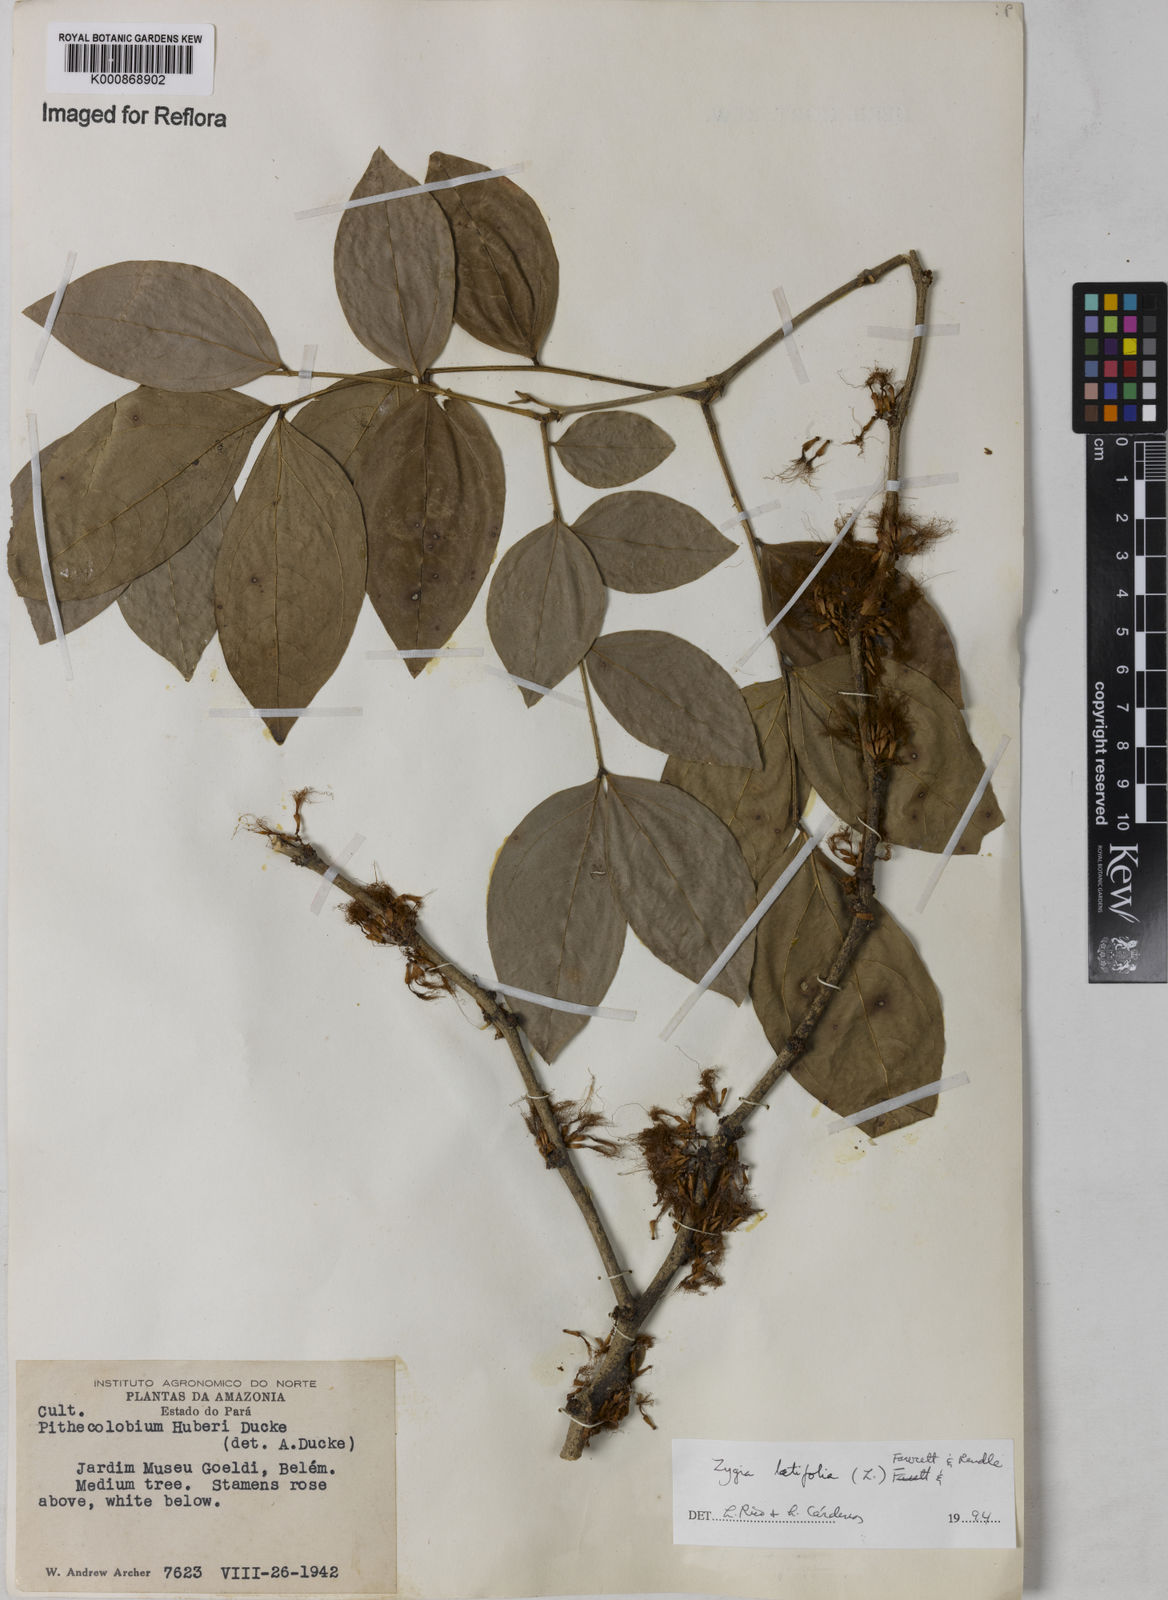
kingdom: Plantae
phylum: Tracheophyta
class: Magnoliopsida
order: Fabales
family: Fabaceae
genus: Zygia
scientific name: Zygia latifolia
